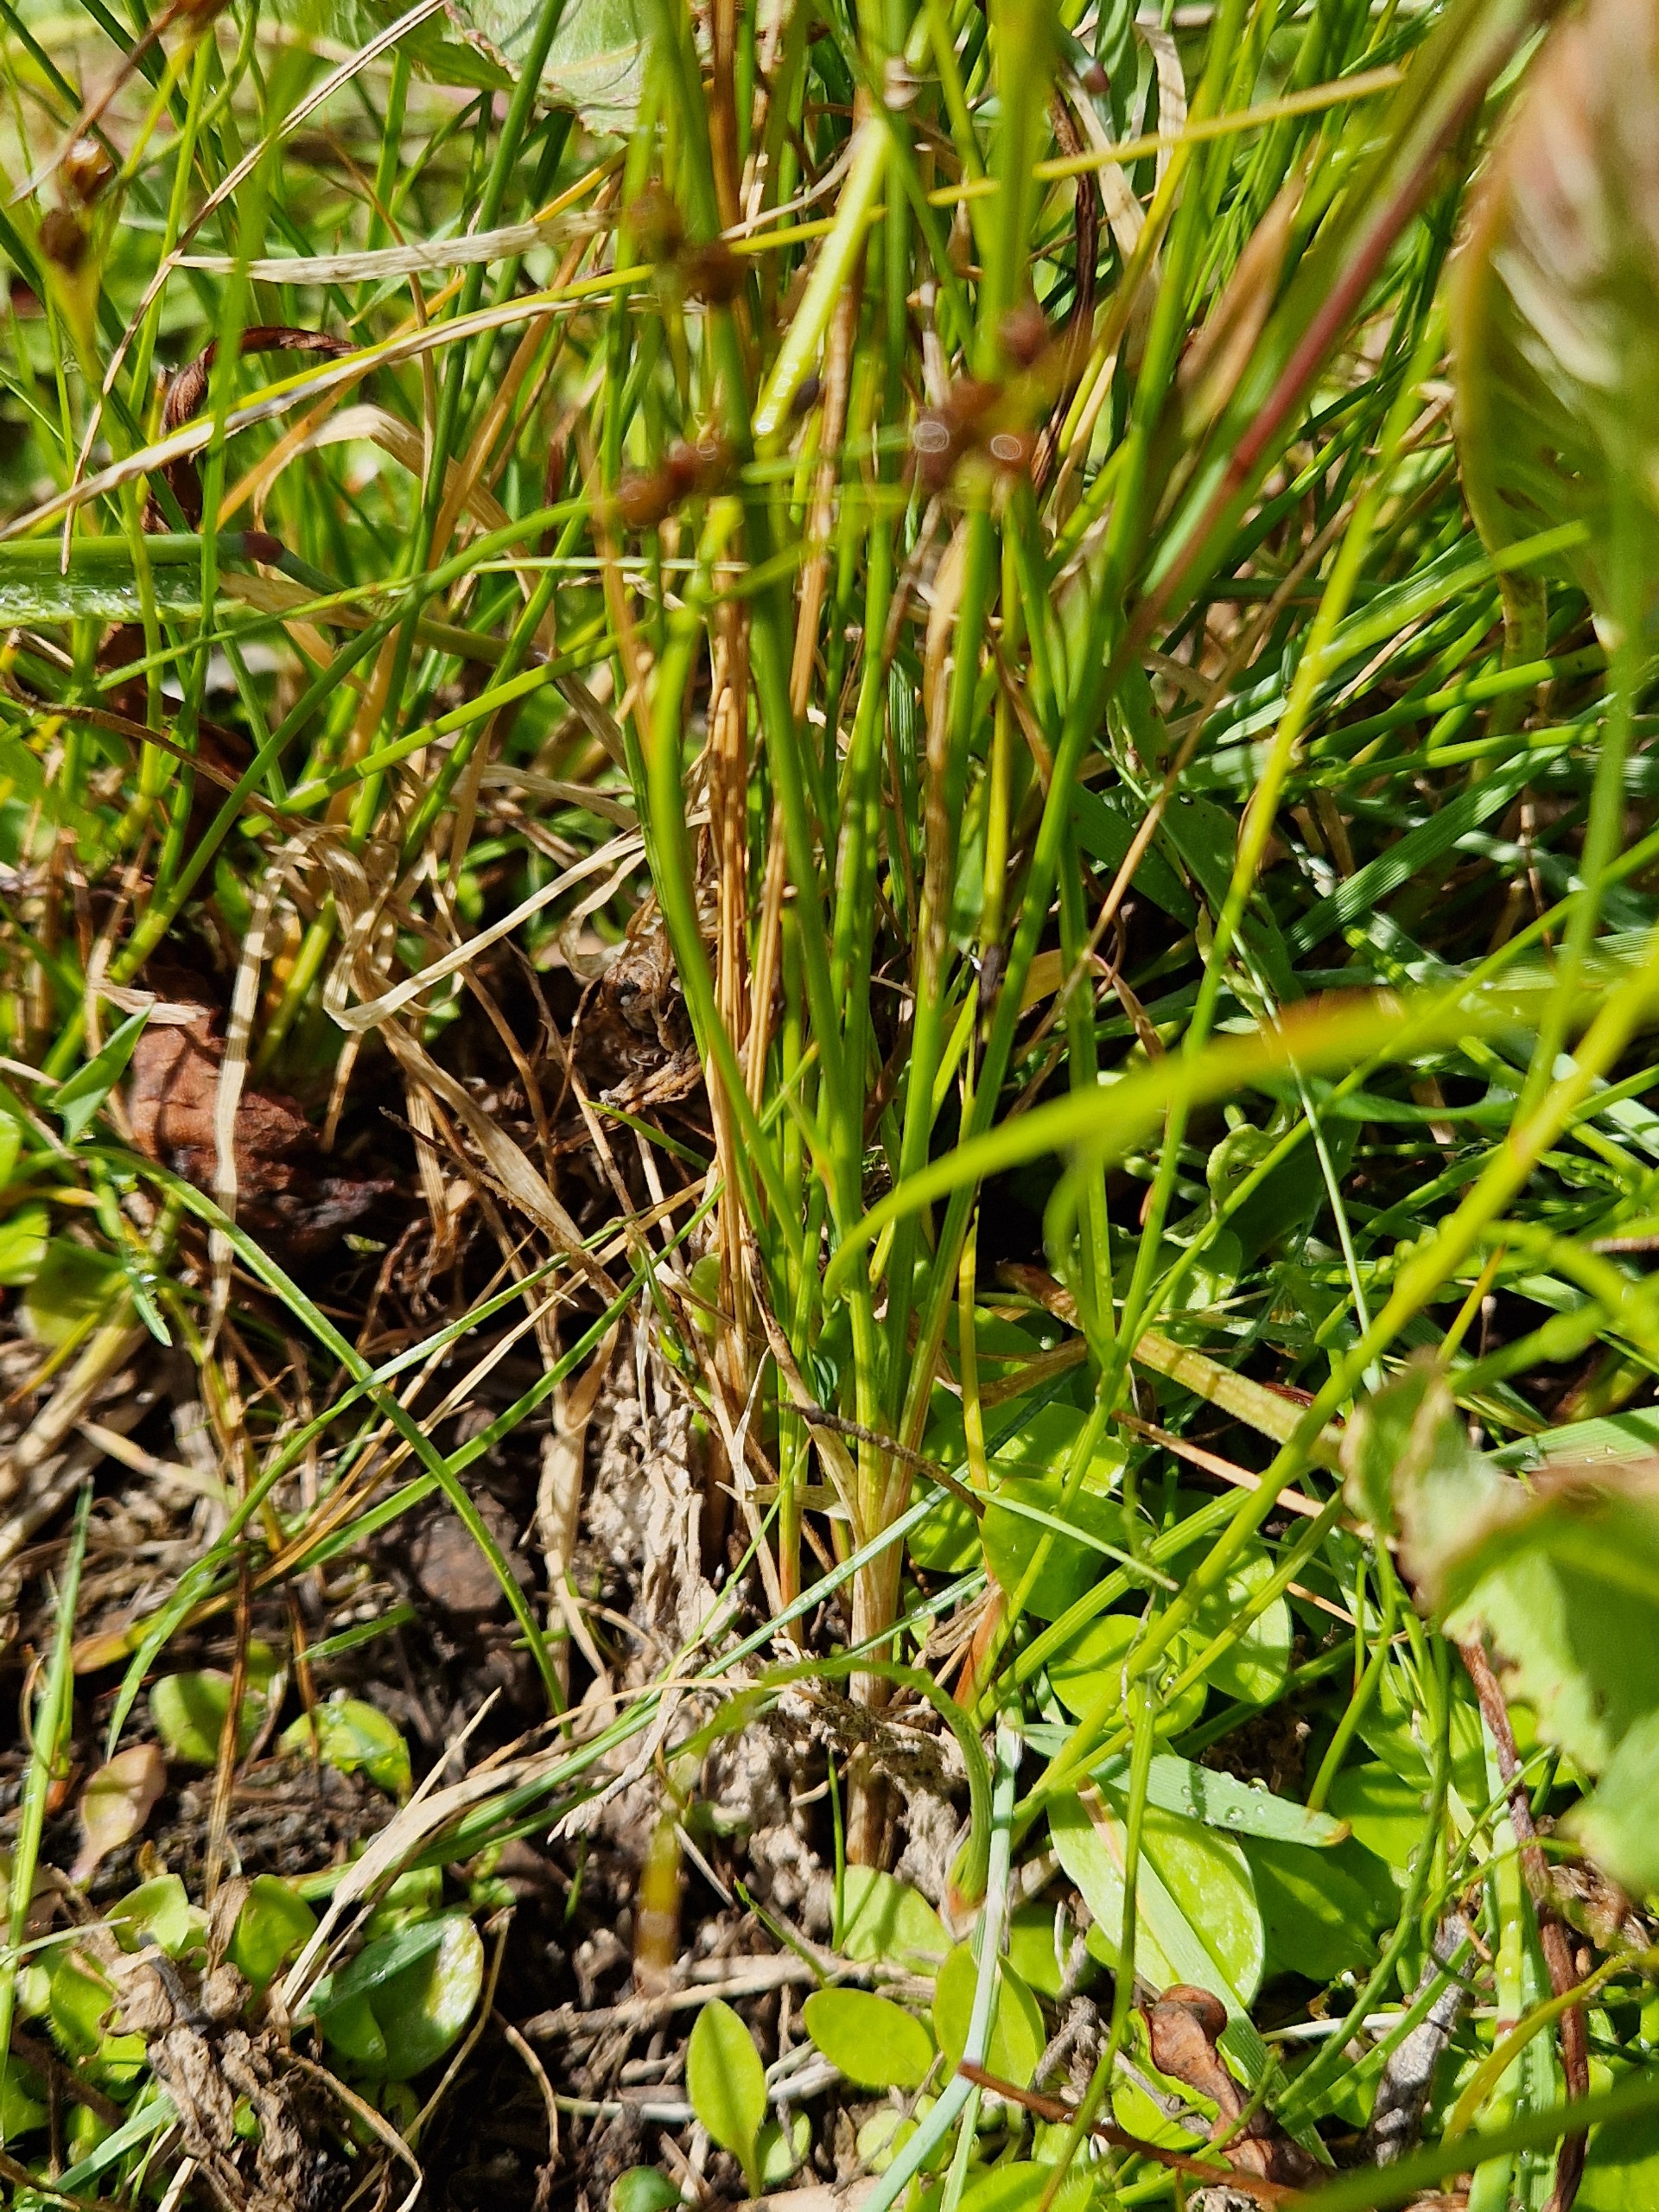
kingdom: Plantae
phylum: Tracheophyta
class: Liliopsida
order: Poales
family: Juncaceae
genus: Juncus
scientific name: Juncus compressus
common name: Fladstrået siv
